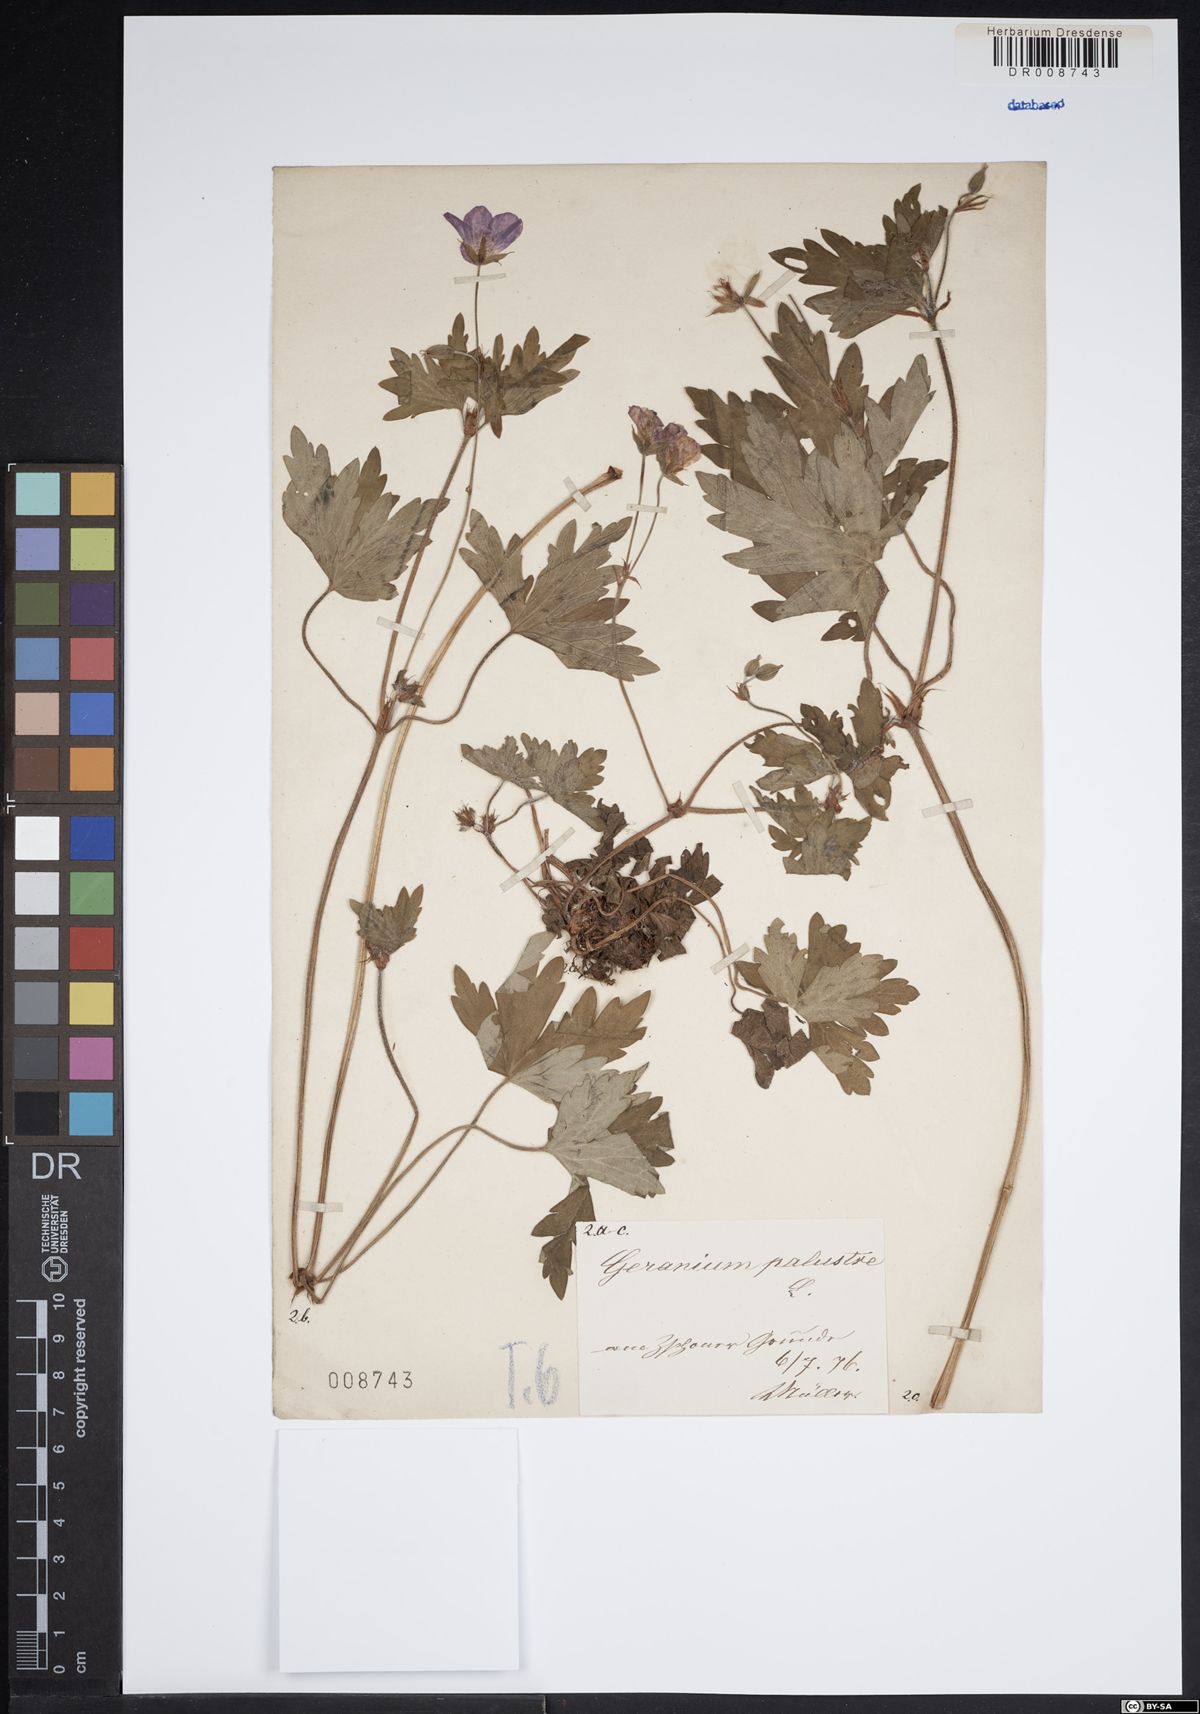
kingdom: Plantae
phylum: Tracheophyta
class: Magnoliopsida
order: Geraniales
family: Geraniaceae
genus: Geranium
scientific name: Geranium palustre
